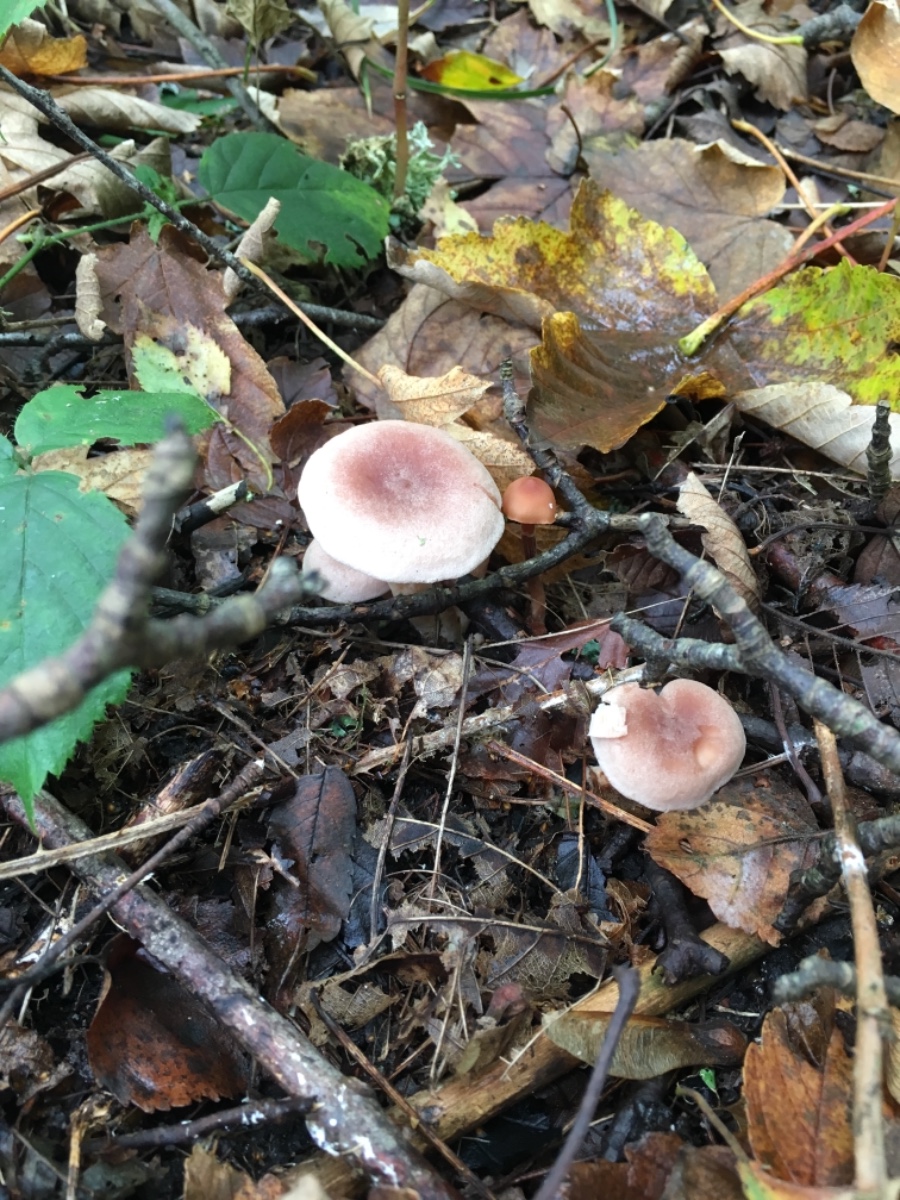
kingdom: Fungi
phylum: Basidiomycota
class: Agaricomycetes
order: Russulales
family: Russulaceae
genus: Lactarius
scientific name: Lactarius glyciosmus
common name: kokos-mælkehat
